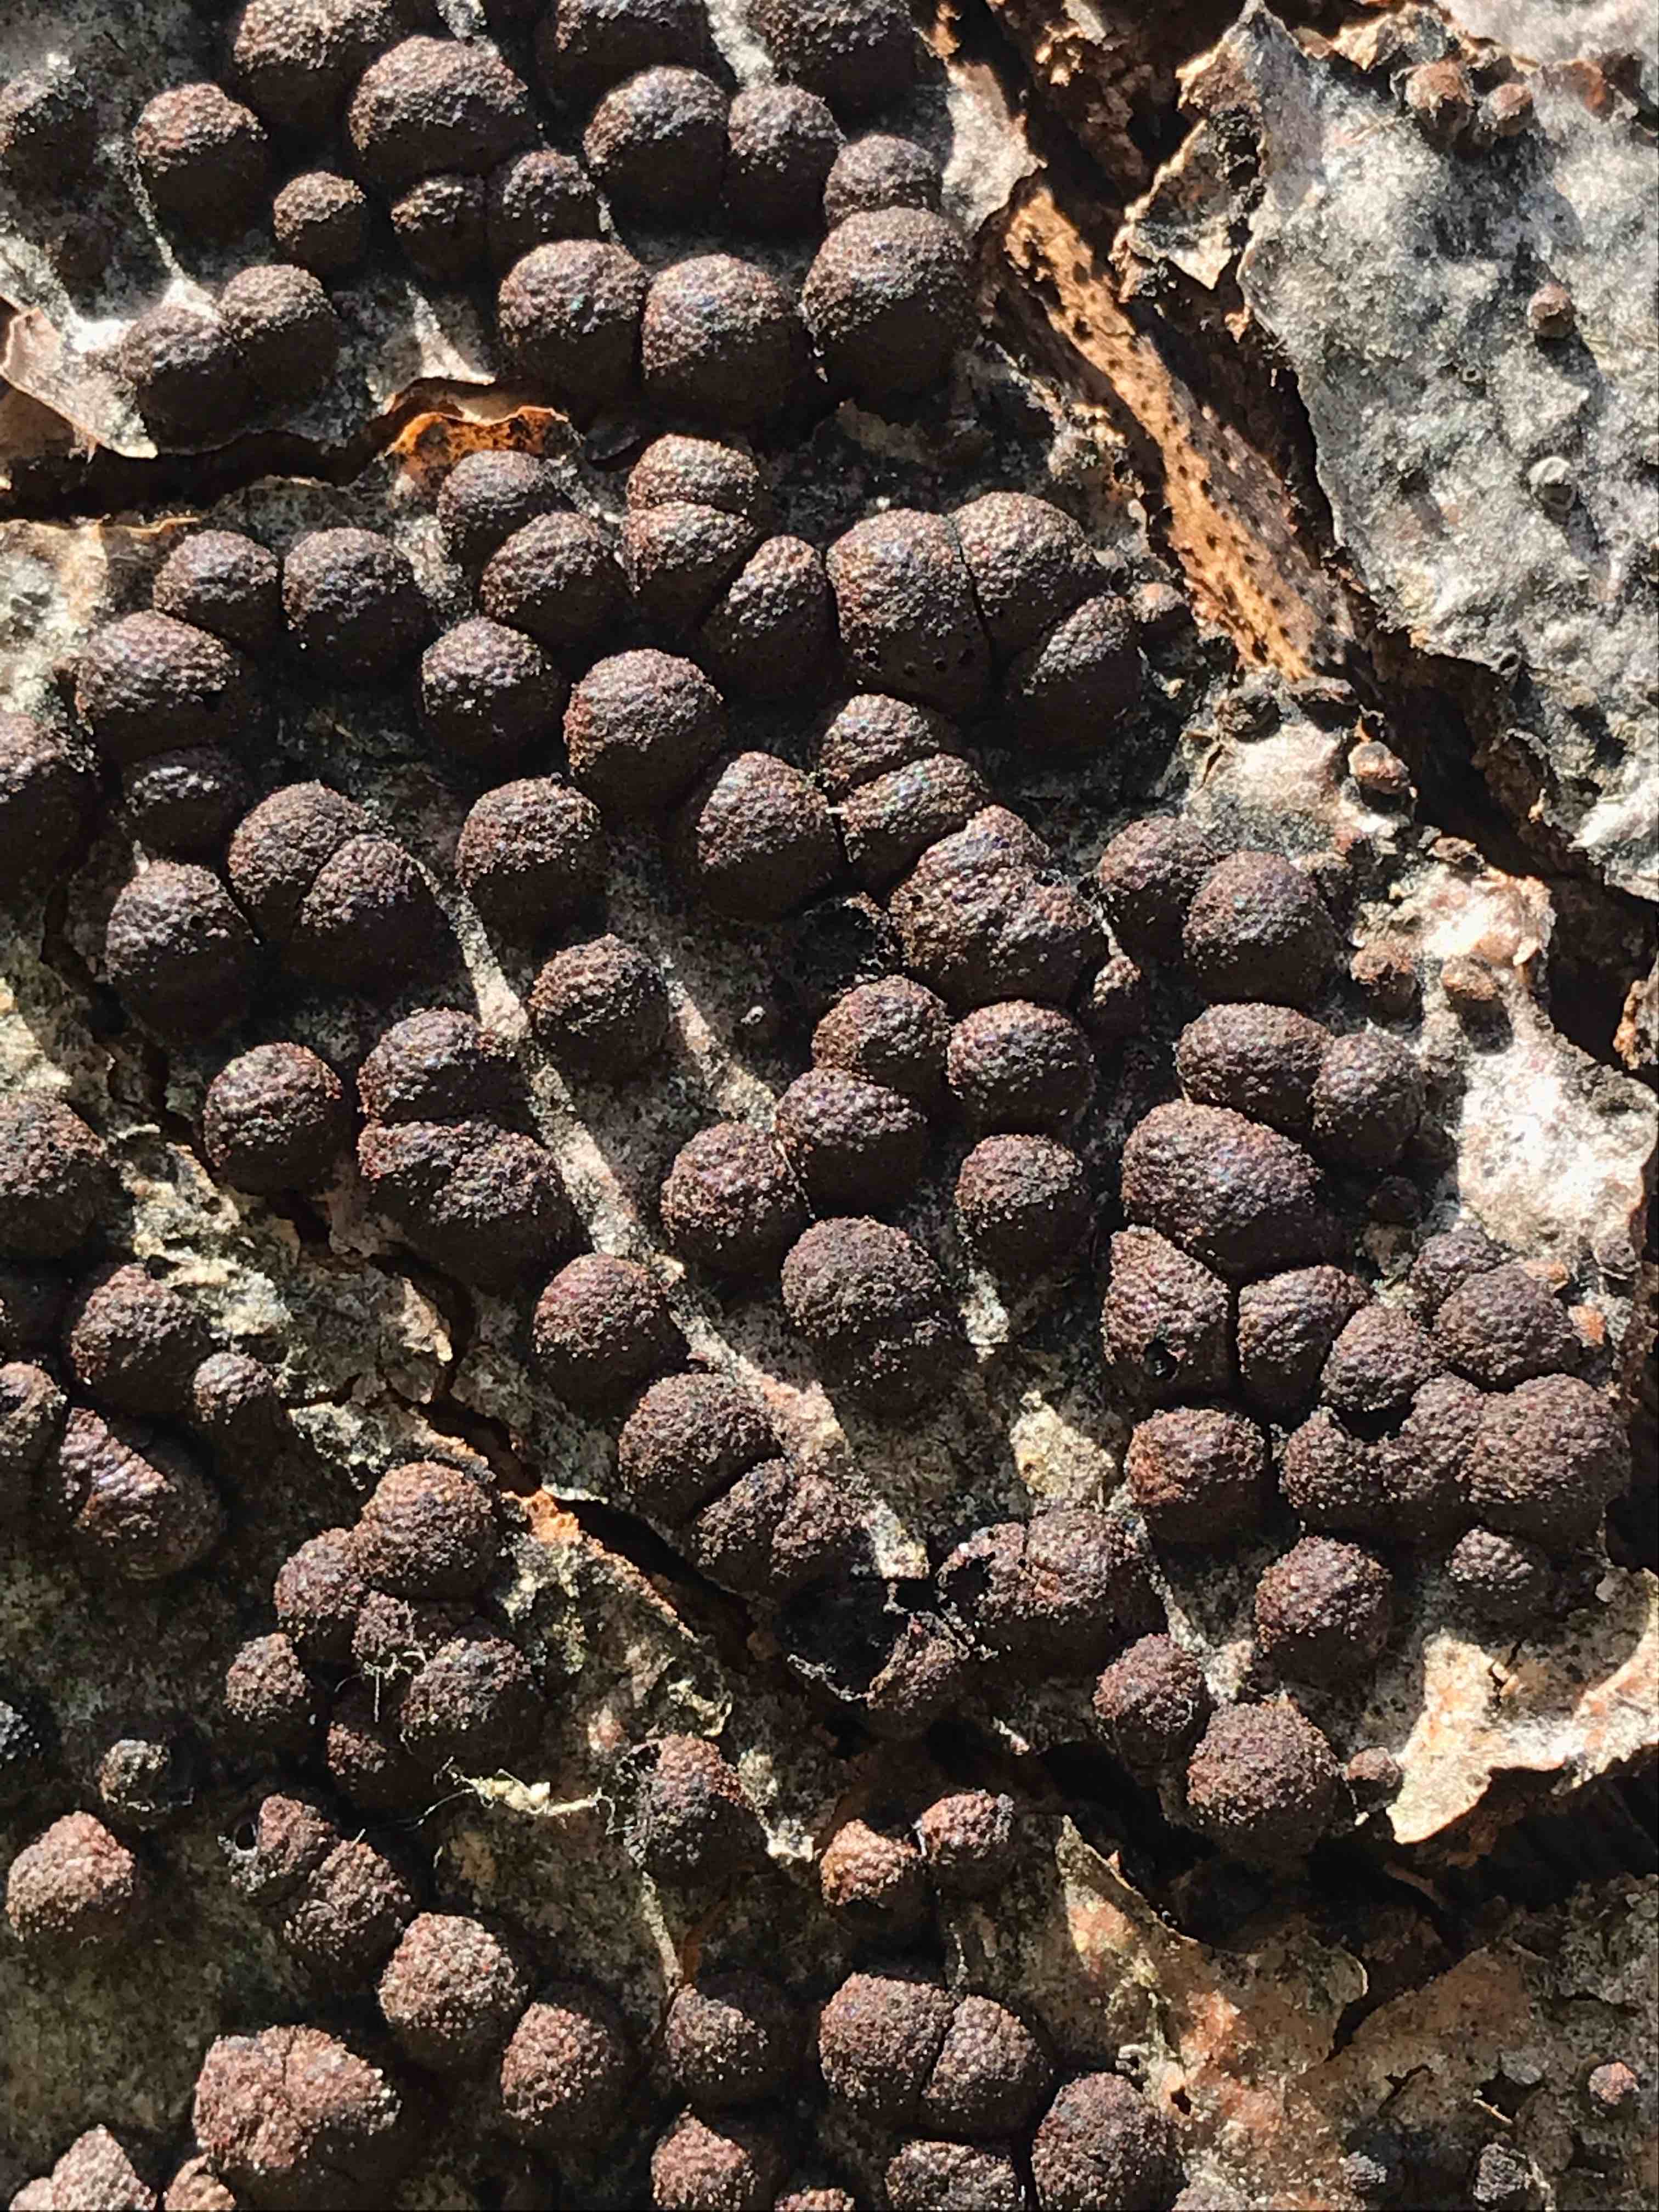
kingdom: Fungi
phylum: Ascomycota
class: Sordariomycetes
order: Xylariales
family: Hypoxylaceae
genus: Hypoxylon
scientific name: Hypoxylon fragiforme
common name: kuljordbær
